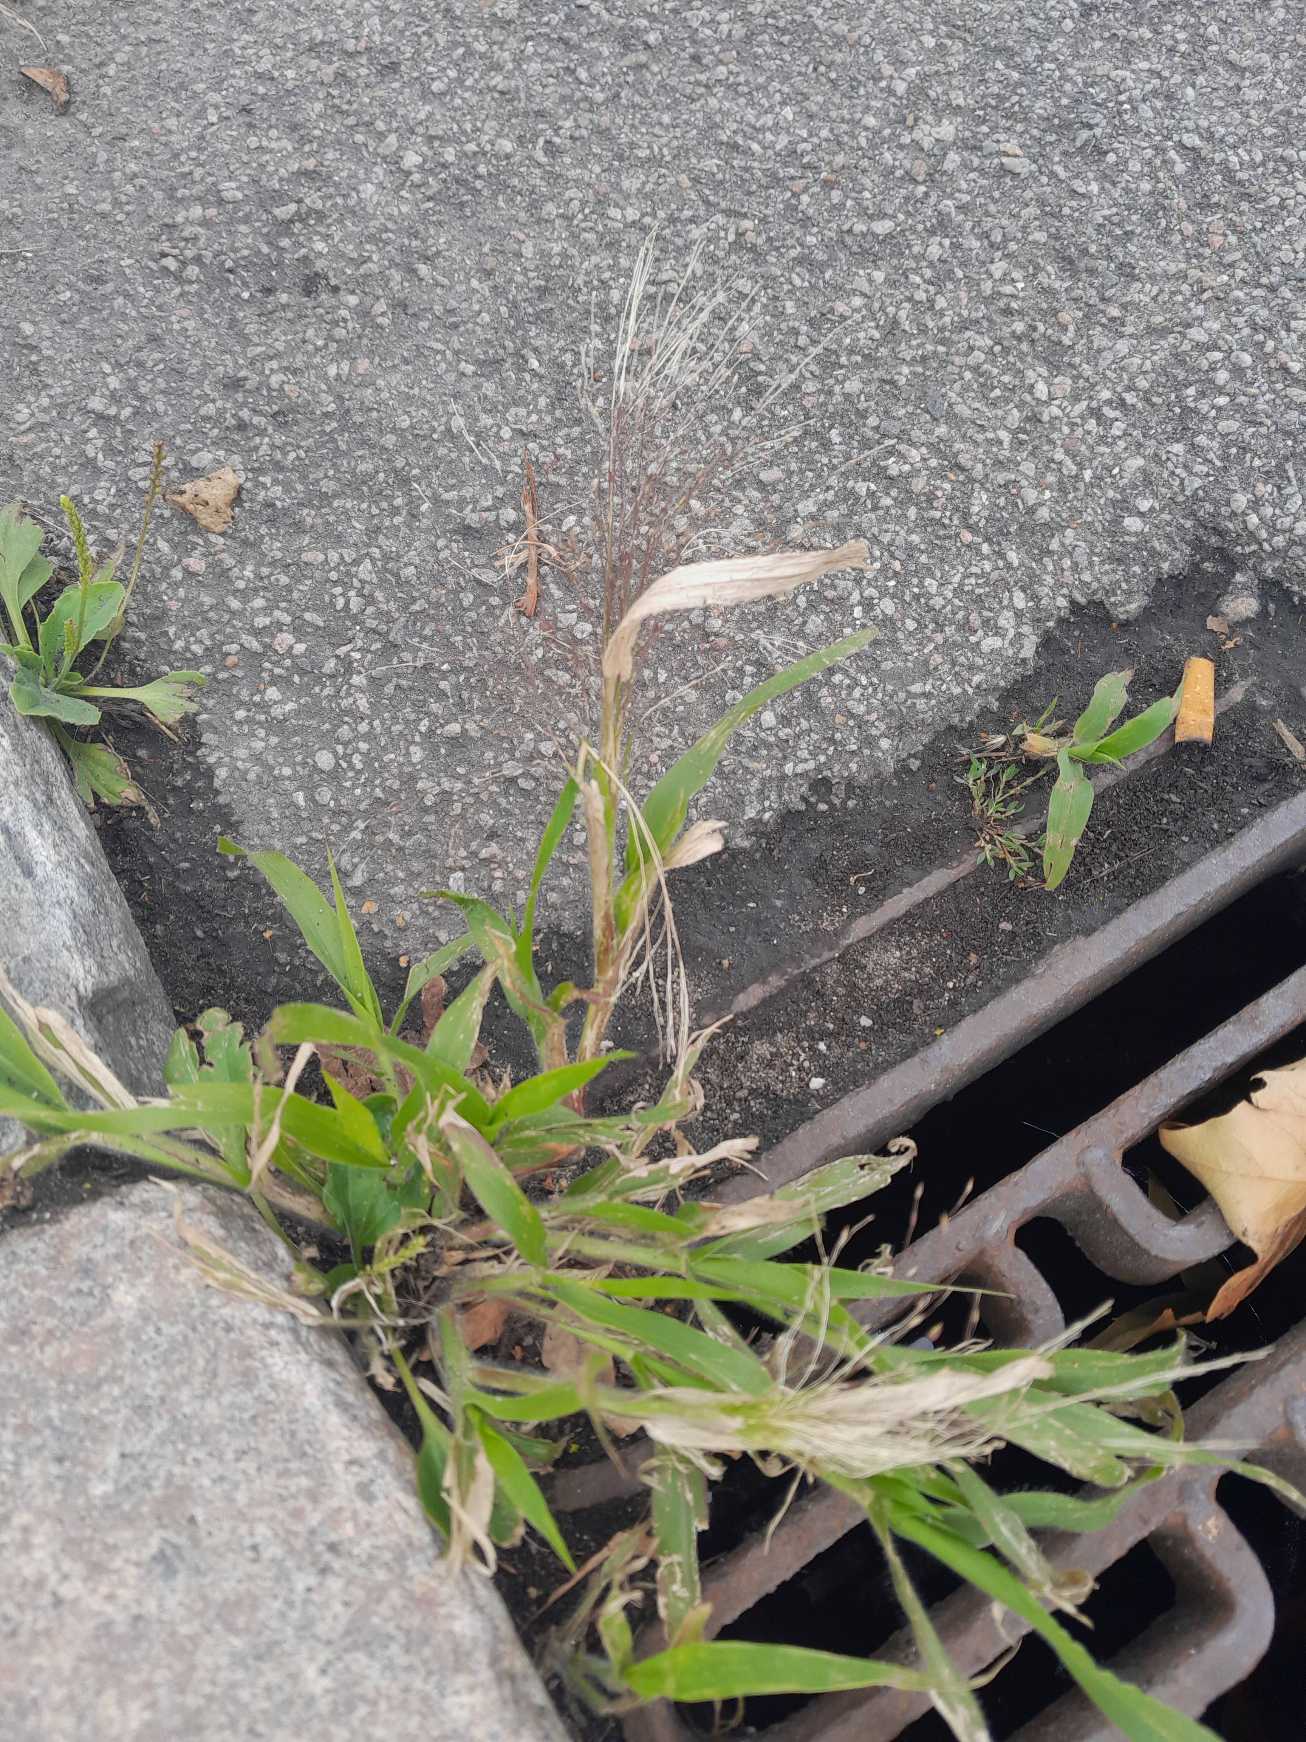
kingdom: Plantae
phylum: Tracheophyta
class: Liliopsida
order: Poales
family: Poaceae
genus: Panicum
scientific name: Panicum capillare
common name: Hårfin hirse
